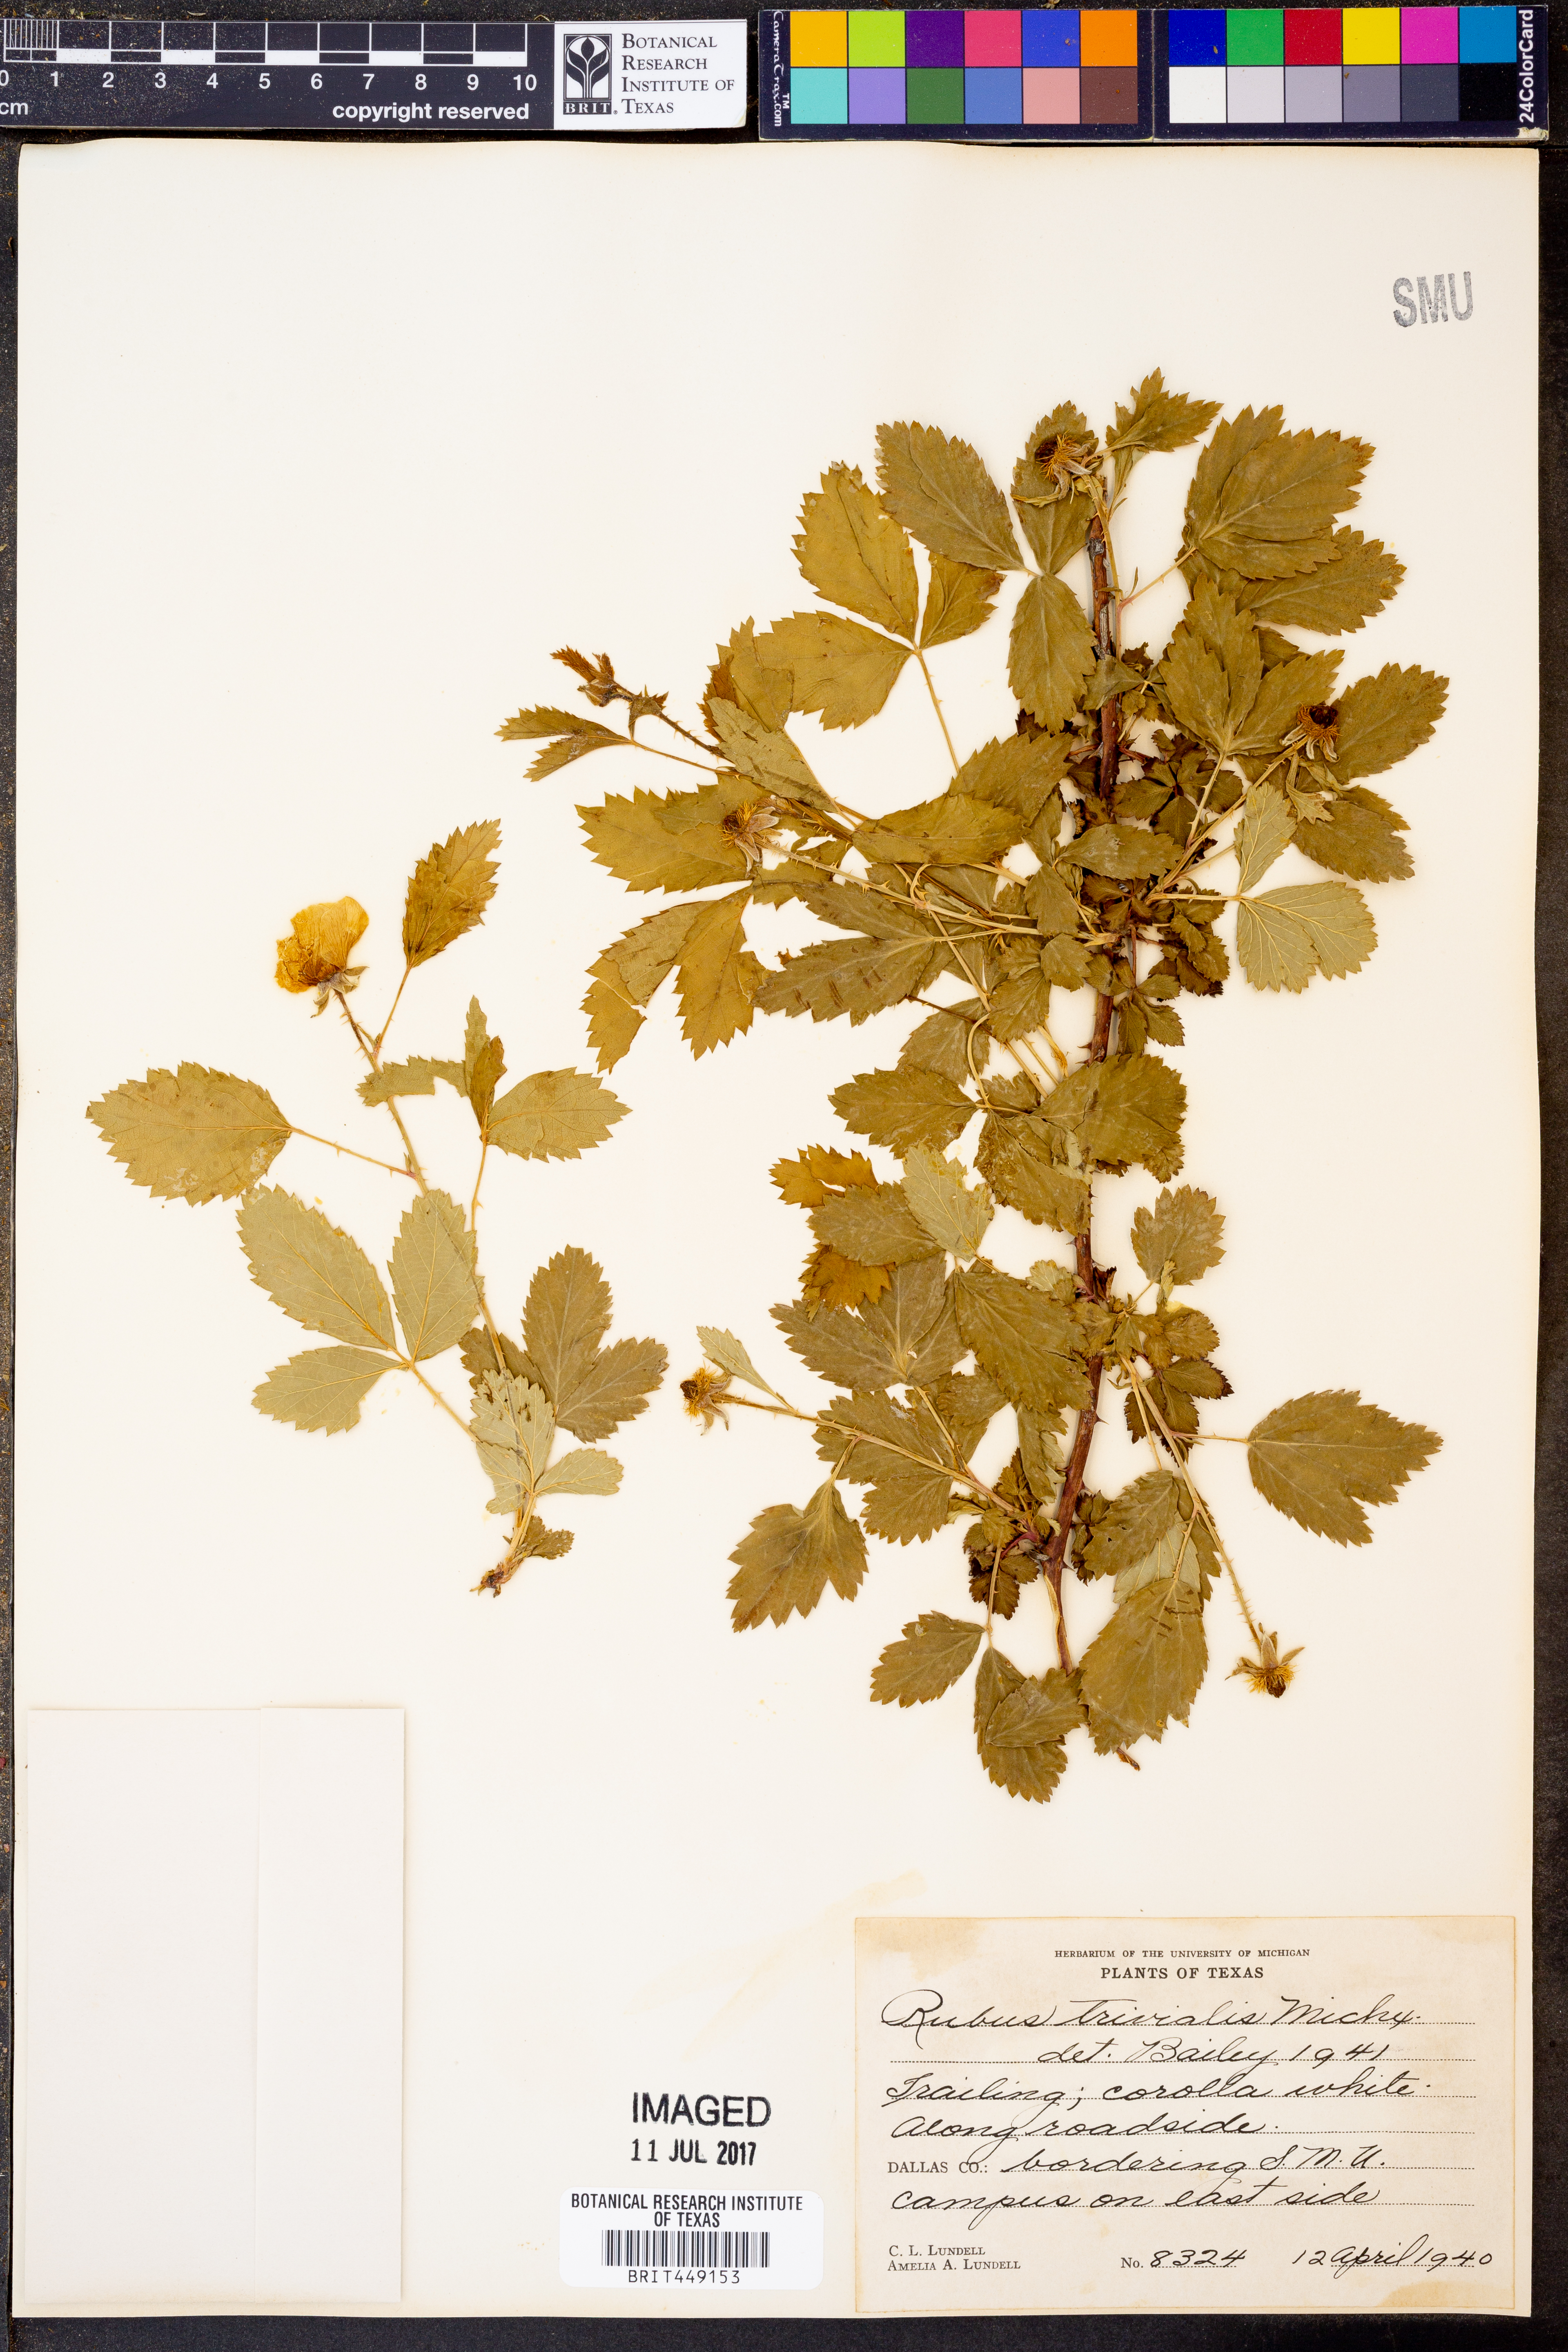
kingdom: Plantae
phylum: Tracheophyta
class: Magnoliopsida
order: Rosales
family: Rosaceae
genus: Rubus
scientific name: Rubus trivialis
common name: Southern dewberry
